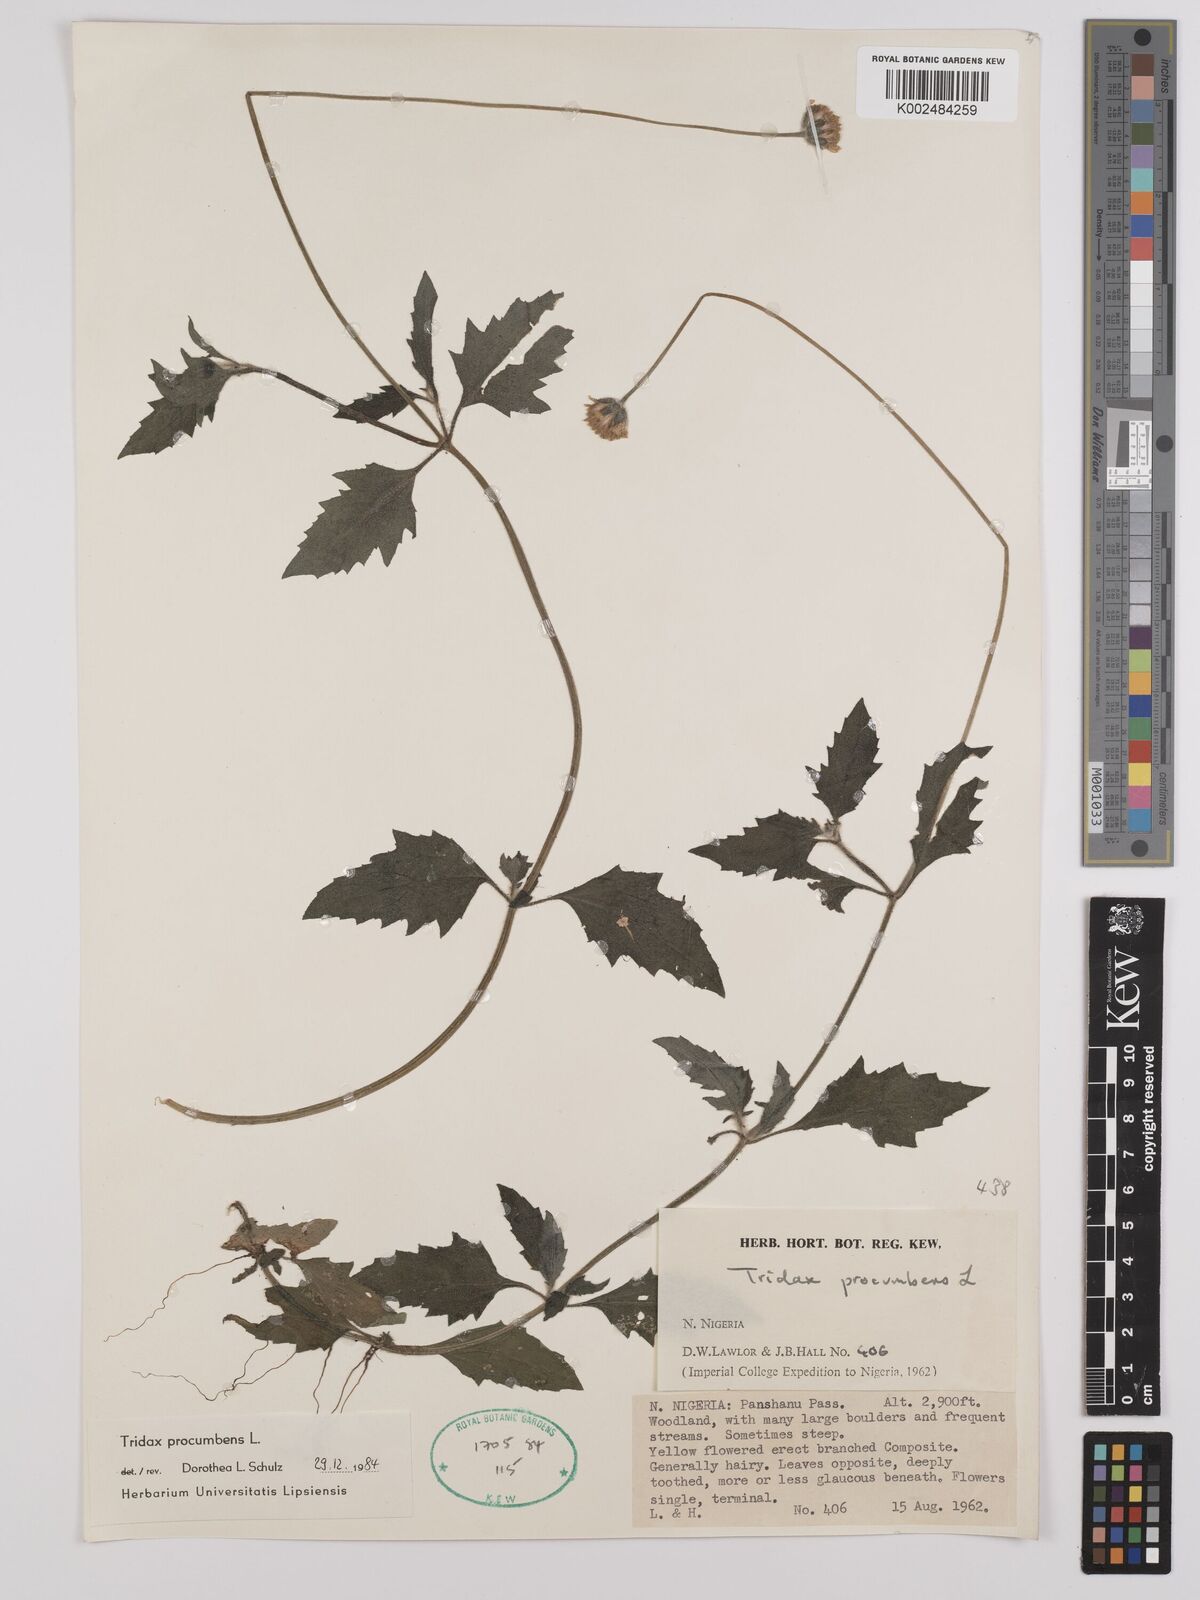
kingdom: Plantae
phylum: Tracheophyta
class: Magnoliopsida
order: Asterales
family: Asteraceae
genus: Tridax
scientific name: Tridax procumbens
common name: Coatbuttons
